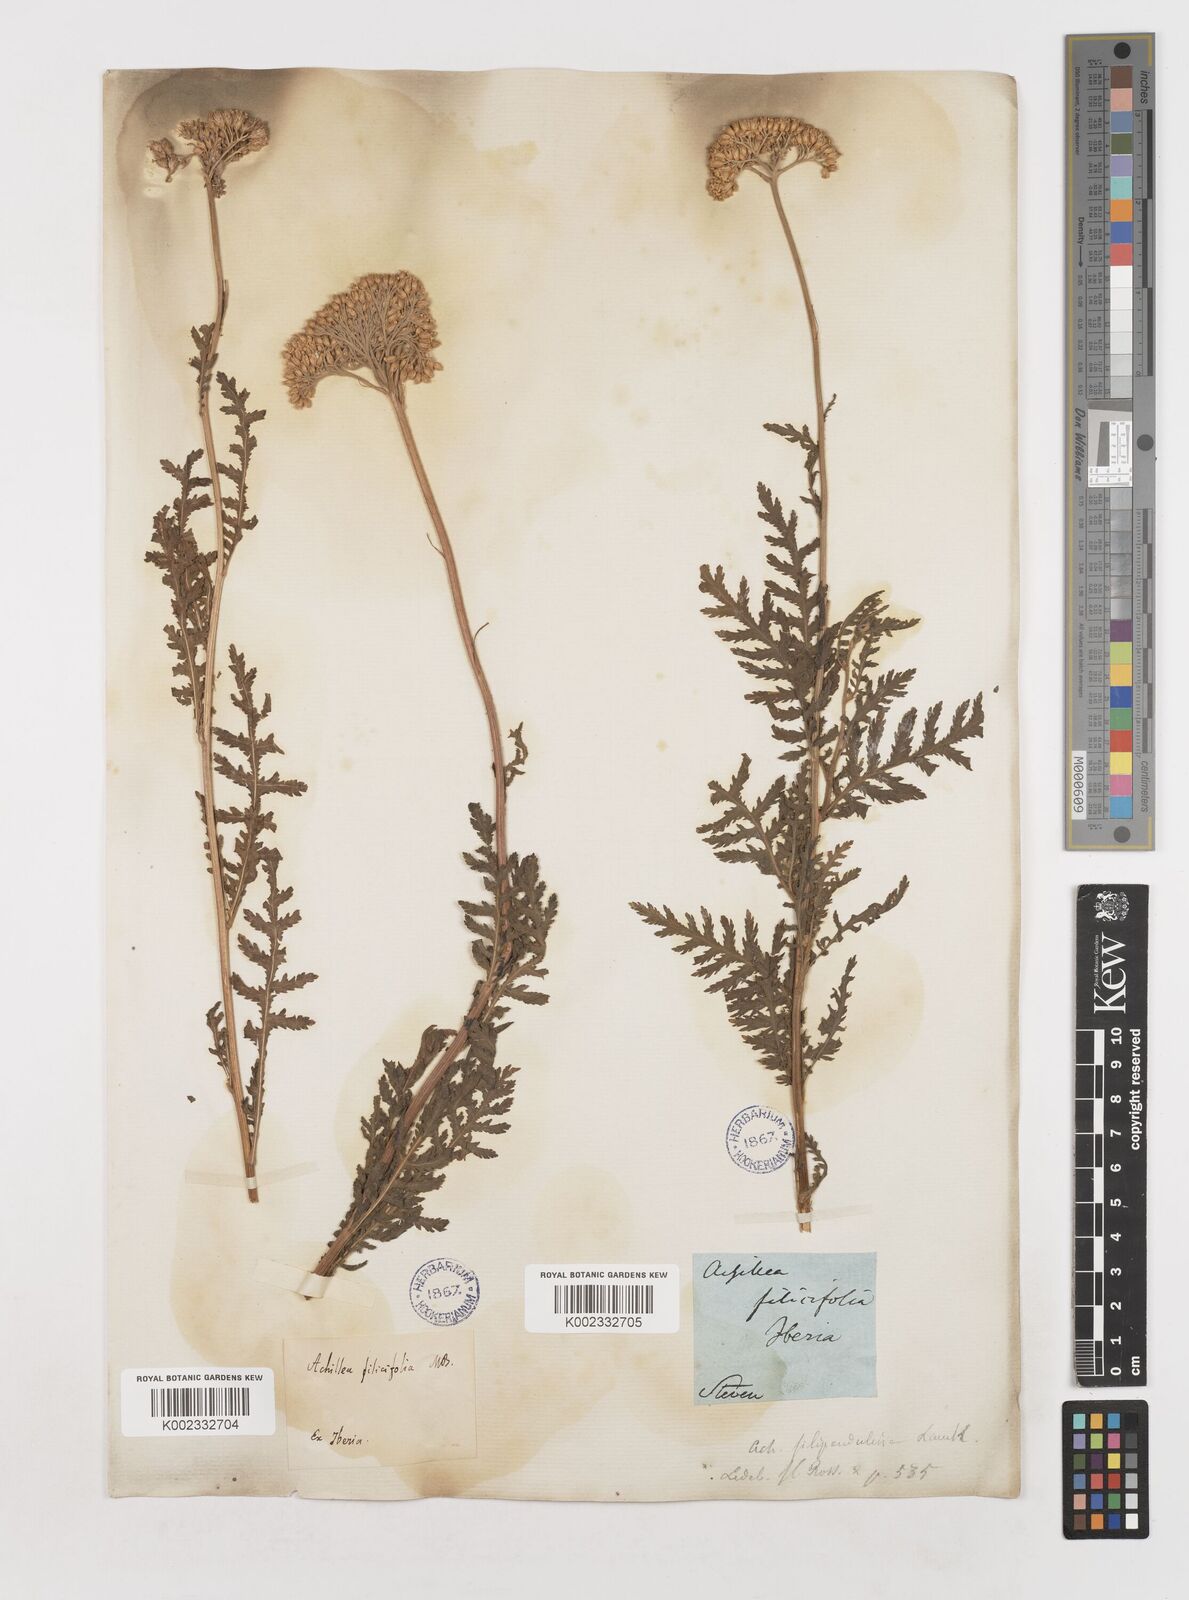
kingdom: Plantae
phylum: Tracheophyta
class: Magnoliopsida
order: Asterales
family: Asteraceae
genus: Achillea
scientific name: Achillea filipendulina
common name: Fernleaf yarrow
